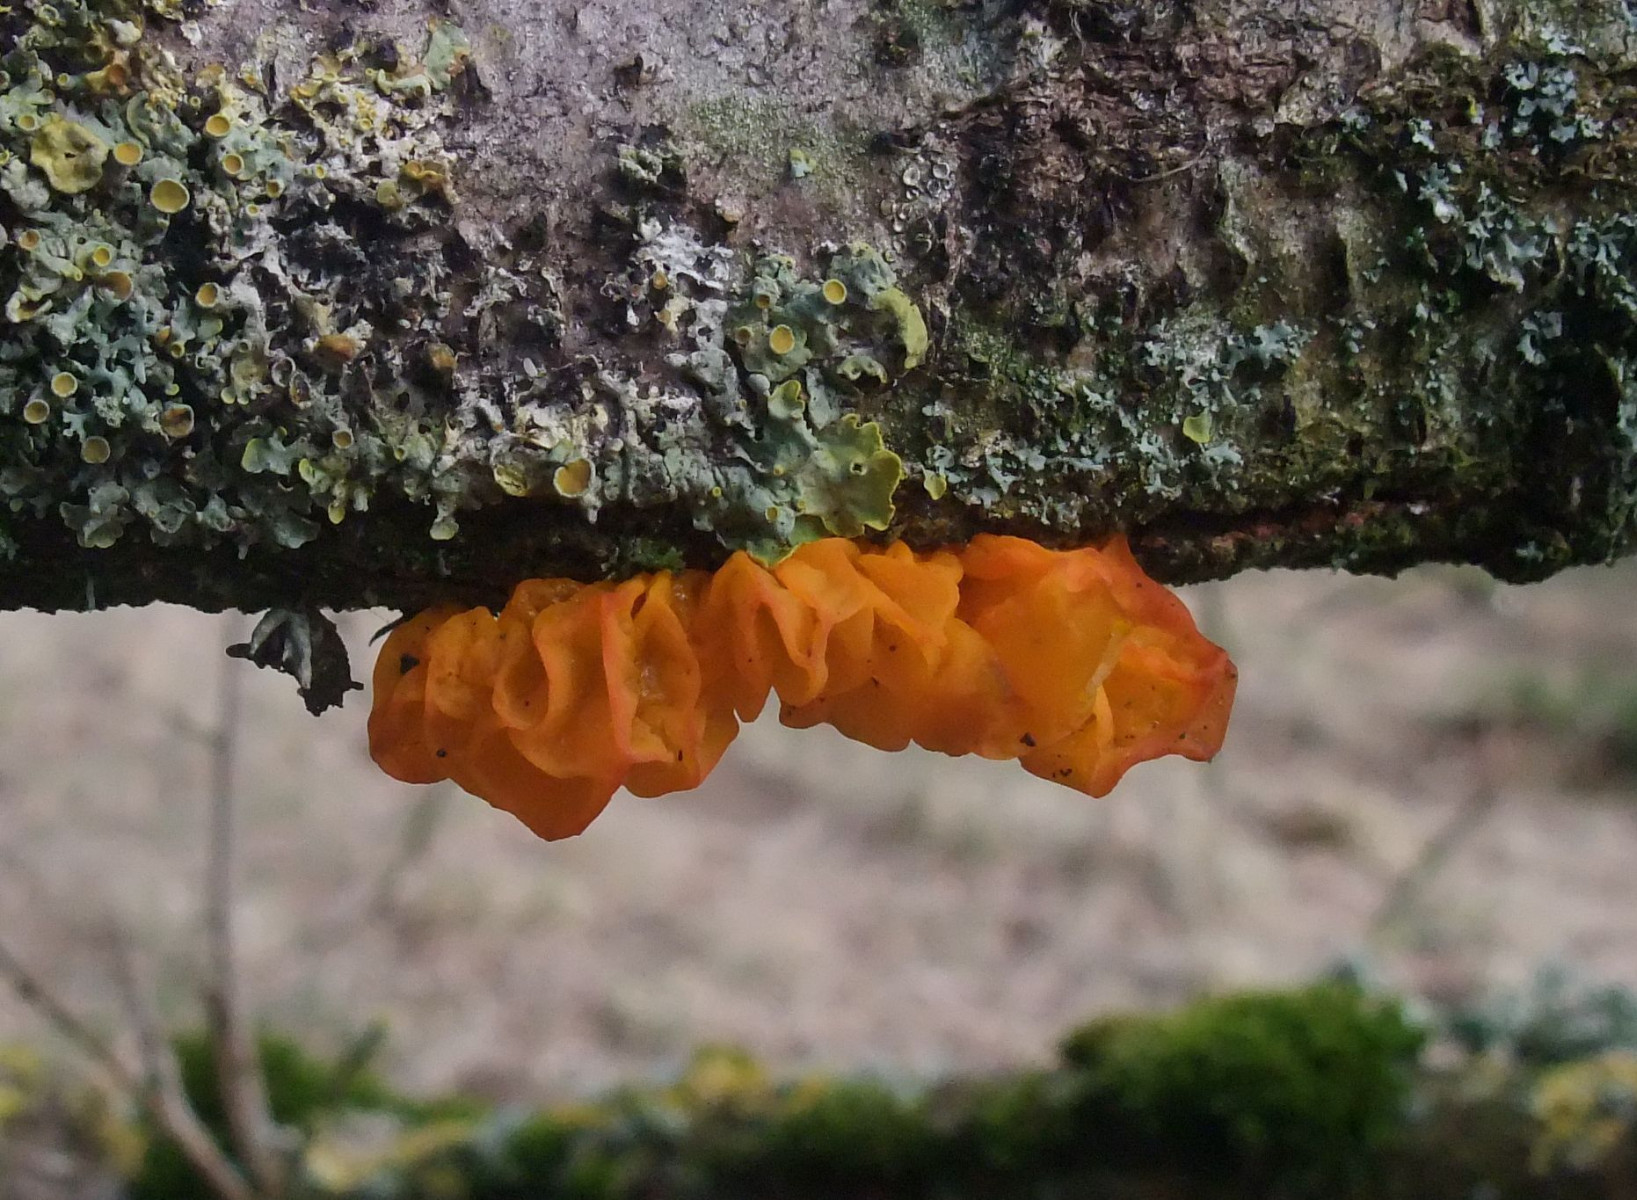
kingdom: Fungi
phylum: Basidiomycota
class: Tremellomycetes
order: Tremellales
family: Tremellaceae
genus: Tremella
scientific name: Tremella mesenterica
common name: gul bævresvamp
